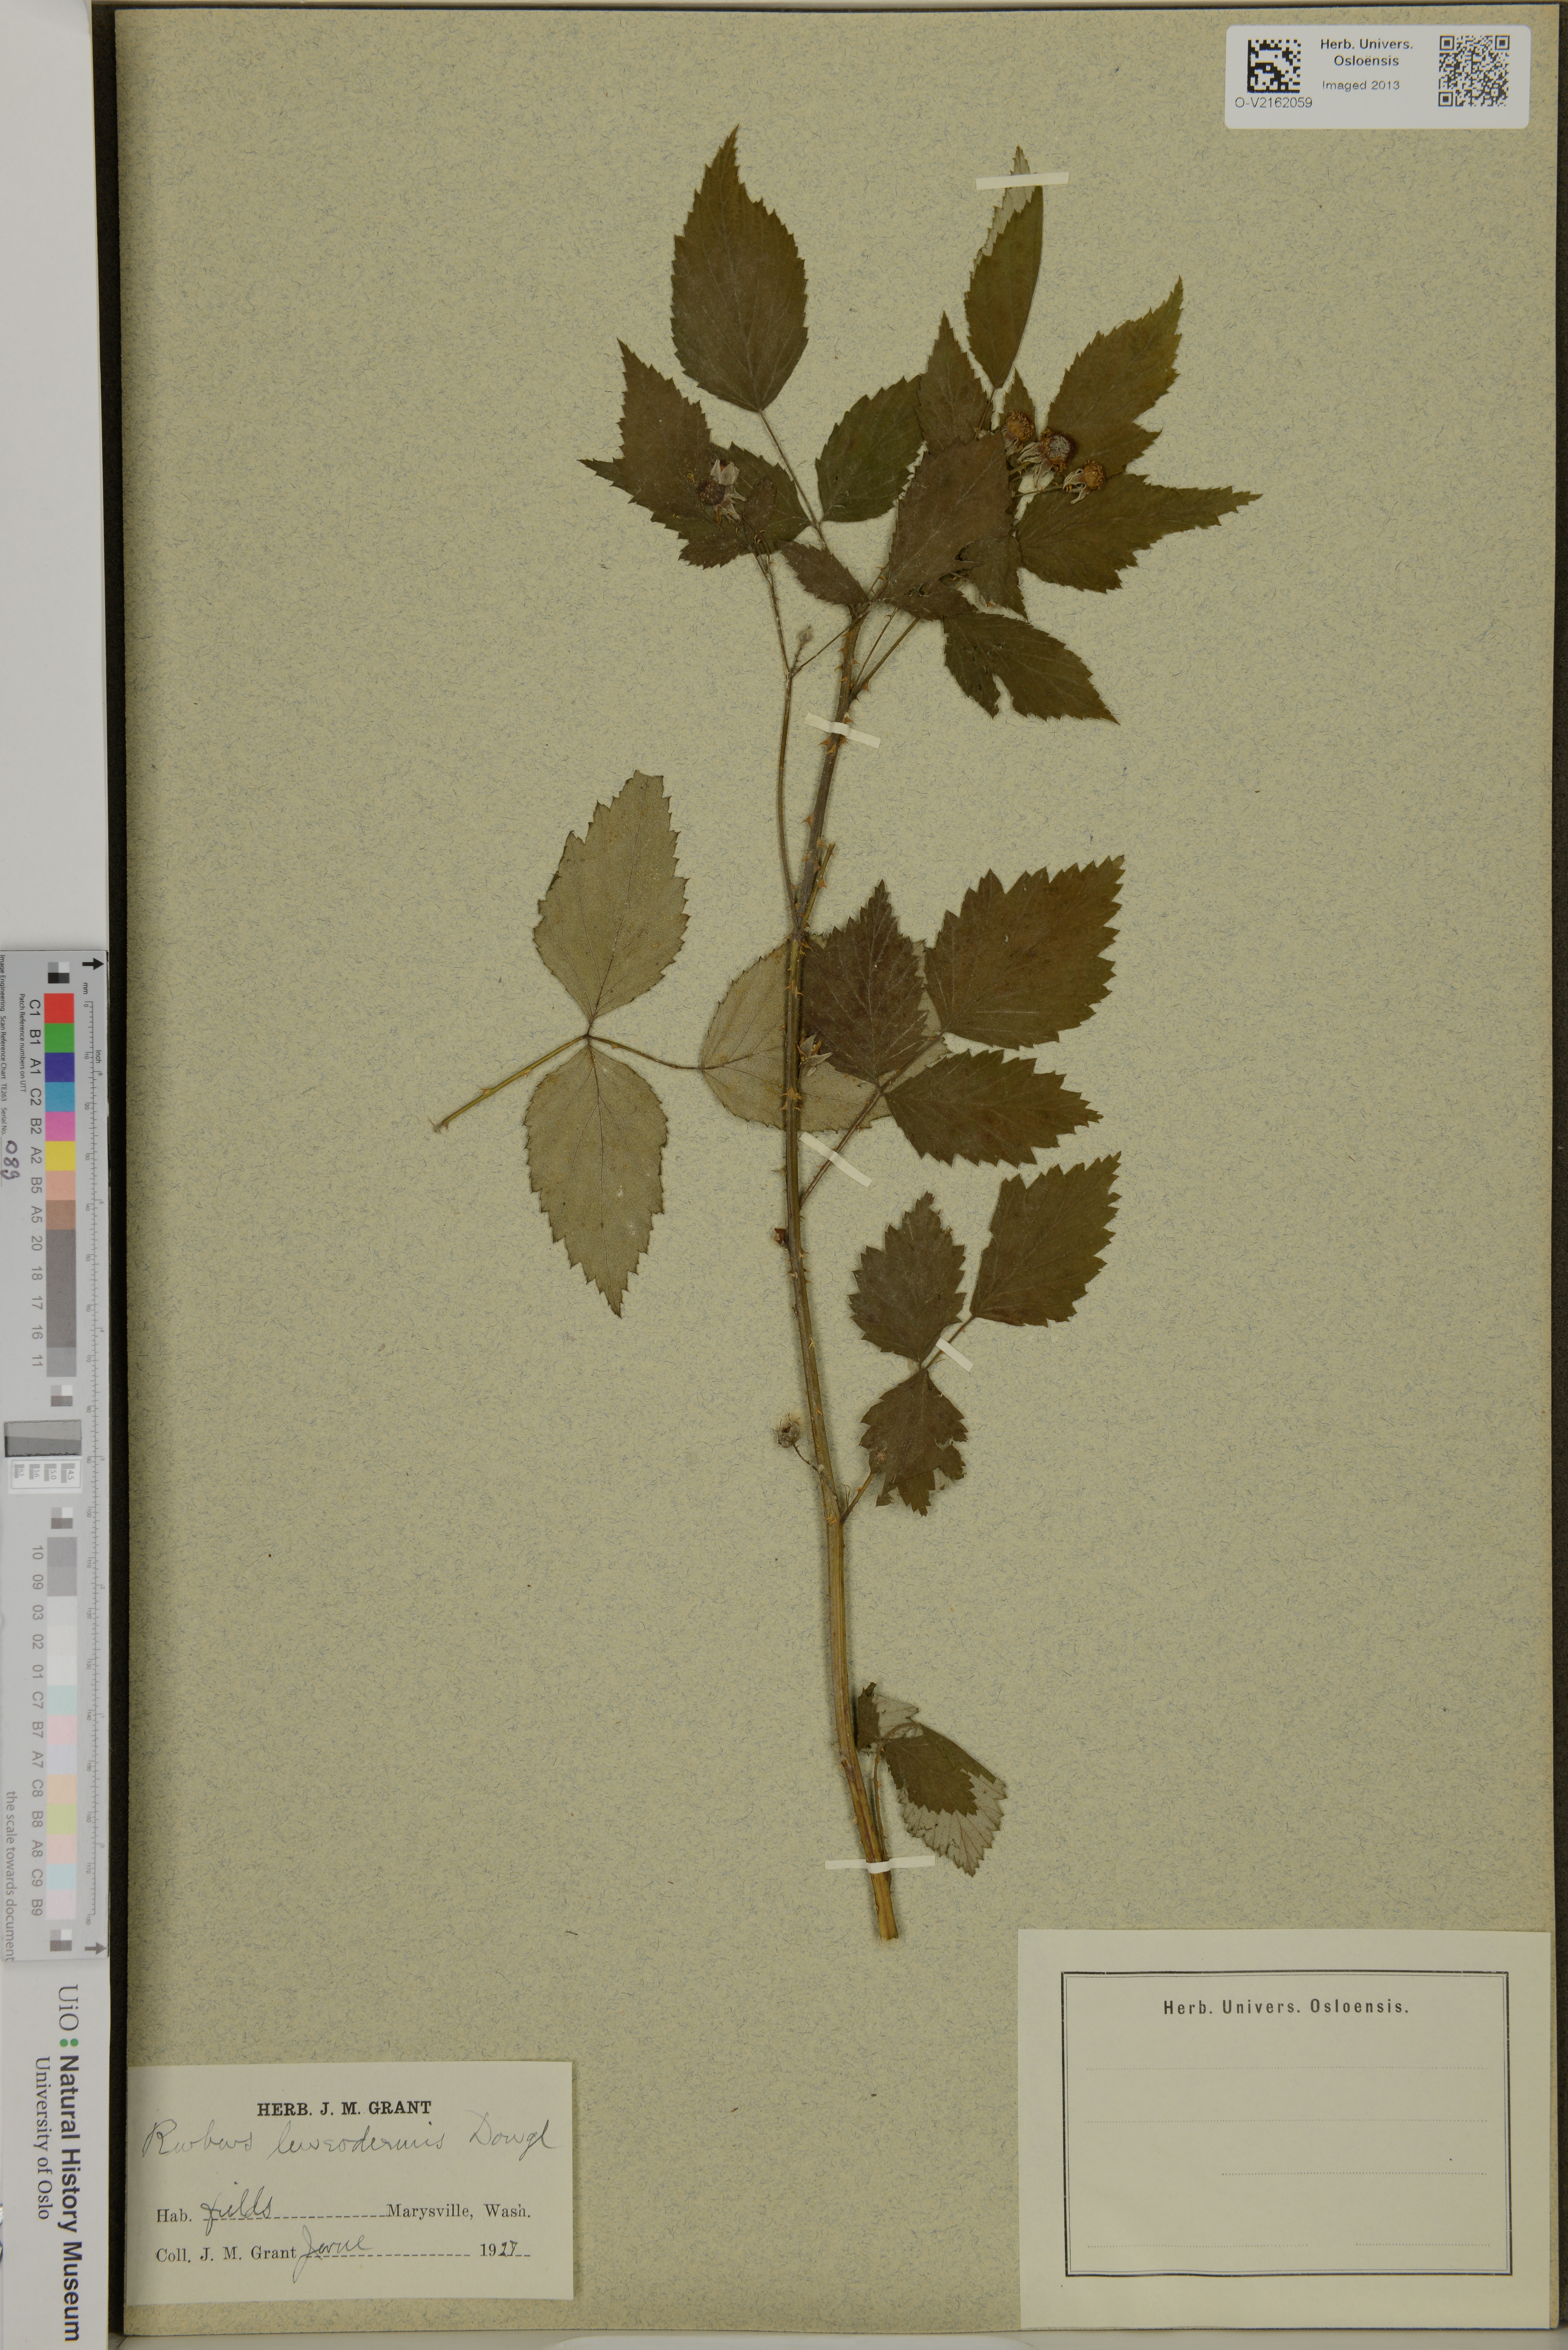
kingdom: Plantae
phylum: Tracheophyta
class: Magnoliopsida
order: Rosales
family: Rosaceae
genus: Rubus
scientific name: Rubus leucodermis
